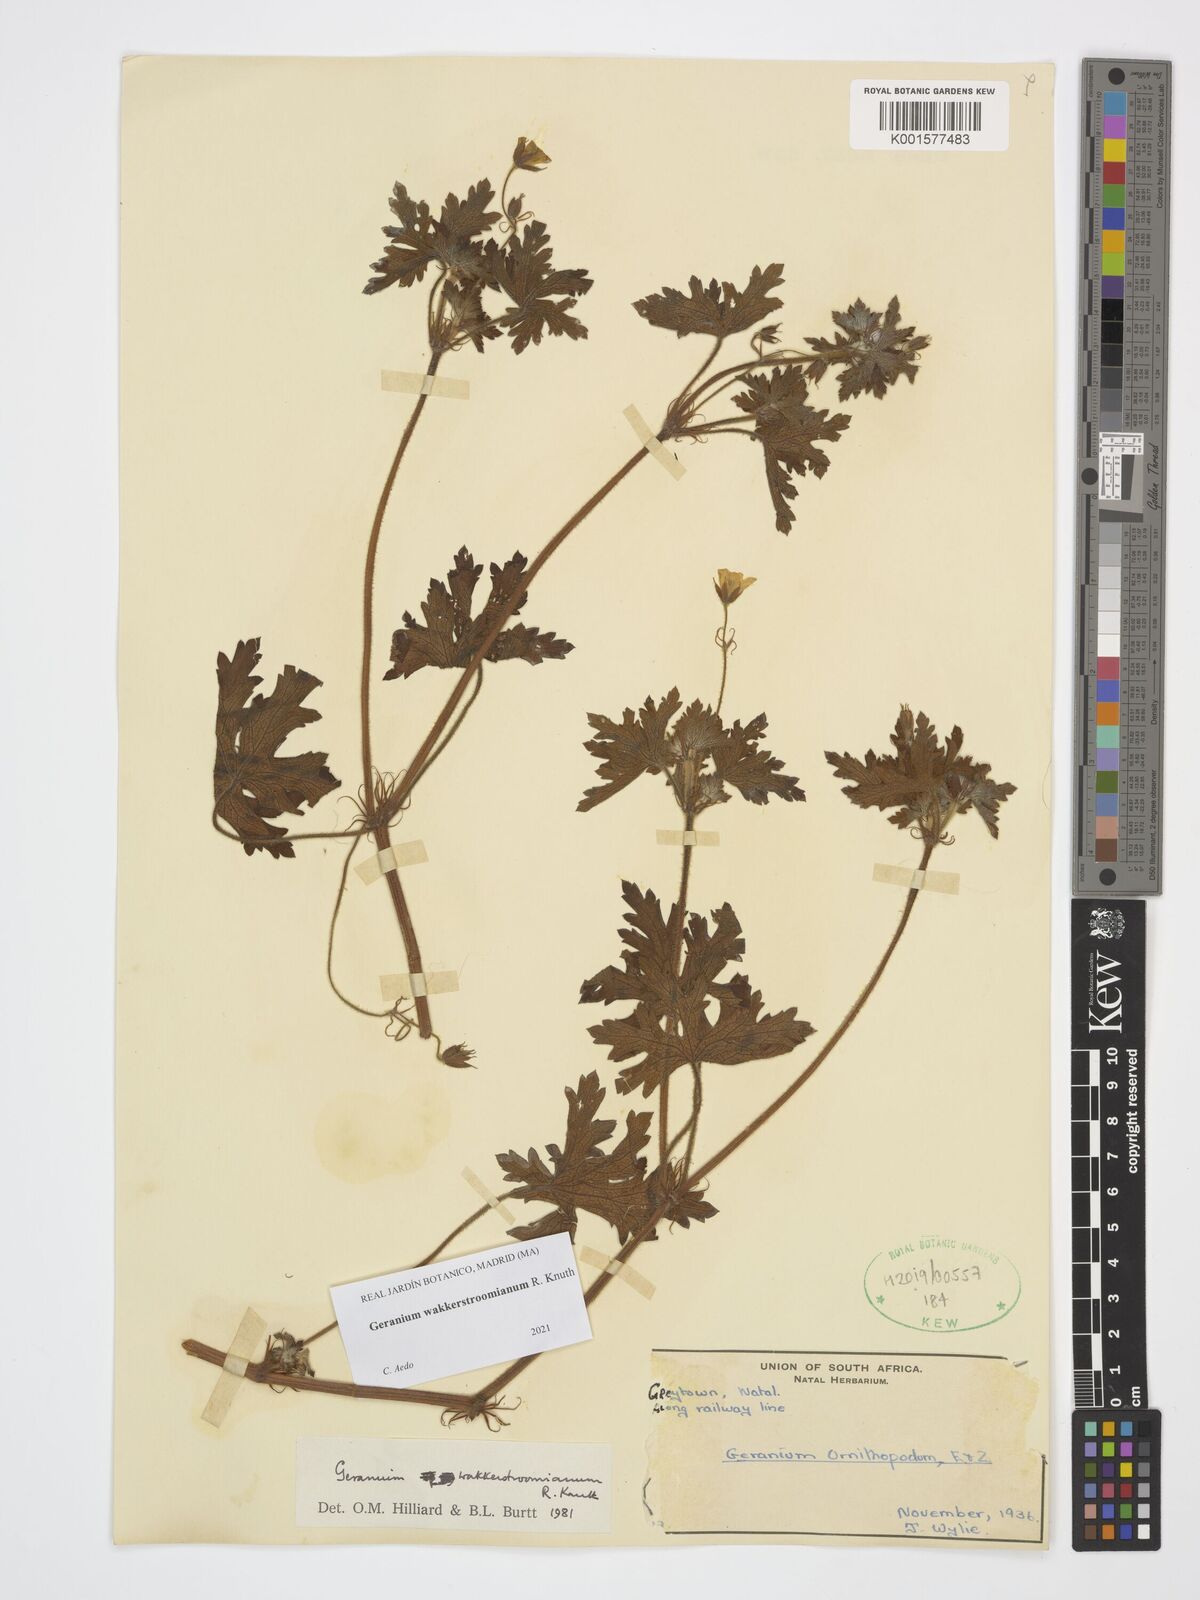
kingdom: Plantae
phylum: Tracheophyta
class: Magnoliopsida
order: Geraniales
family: Geraniaceae
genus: Geranium
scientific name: Geranium wakkerstroomianum
